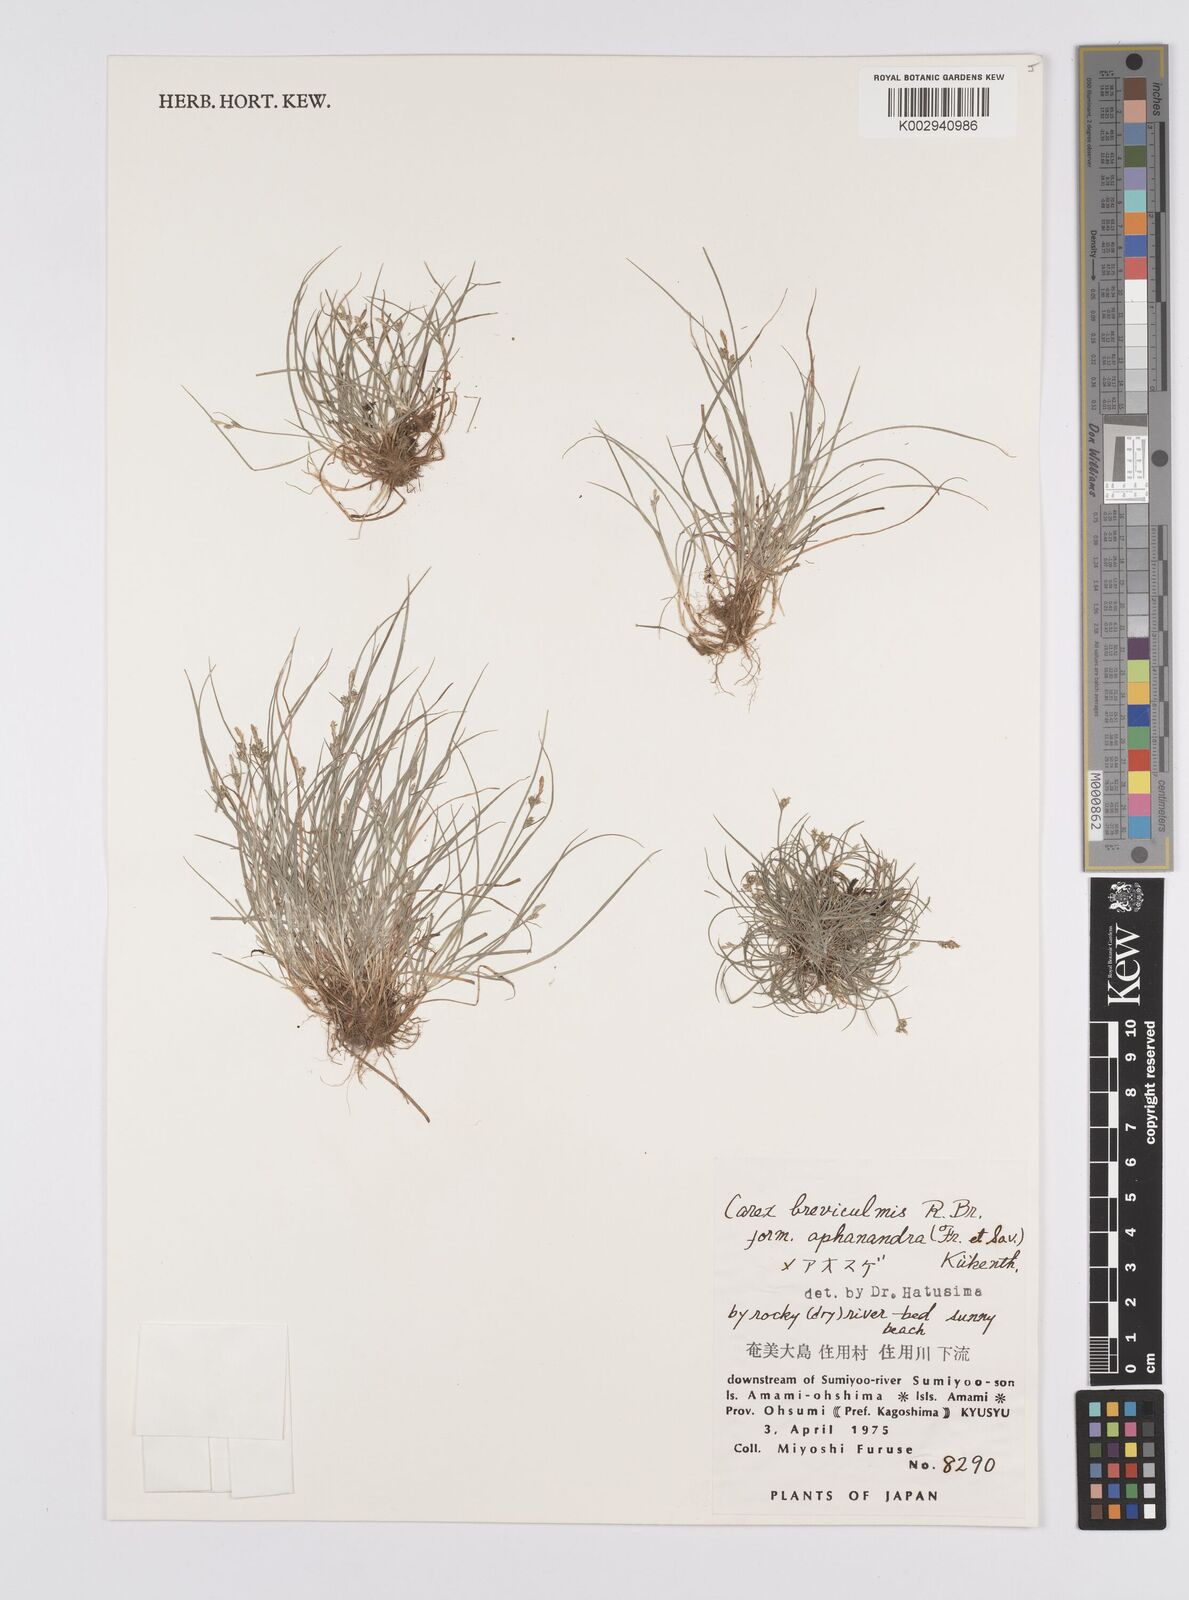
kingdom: Plantae
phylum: Tracheophyta
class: Liliopsida
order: Poales
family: Cyperaceae
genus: Carex
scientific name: Carex breviculmis
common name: Asian shortstem sedge
